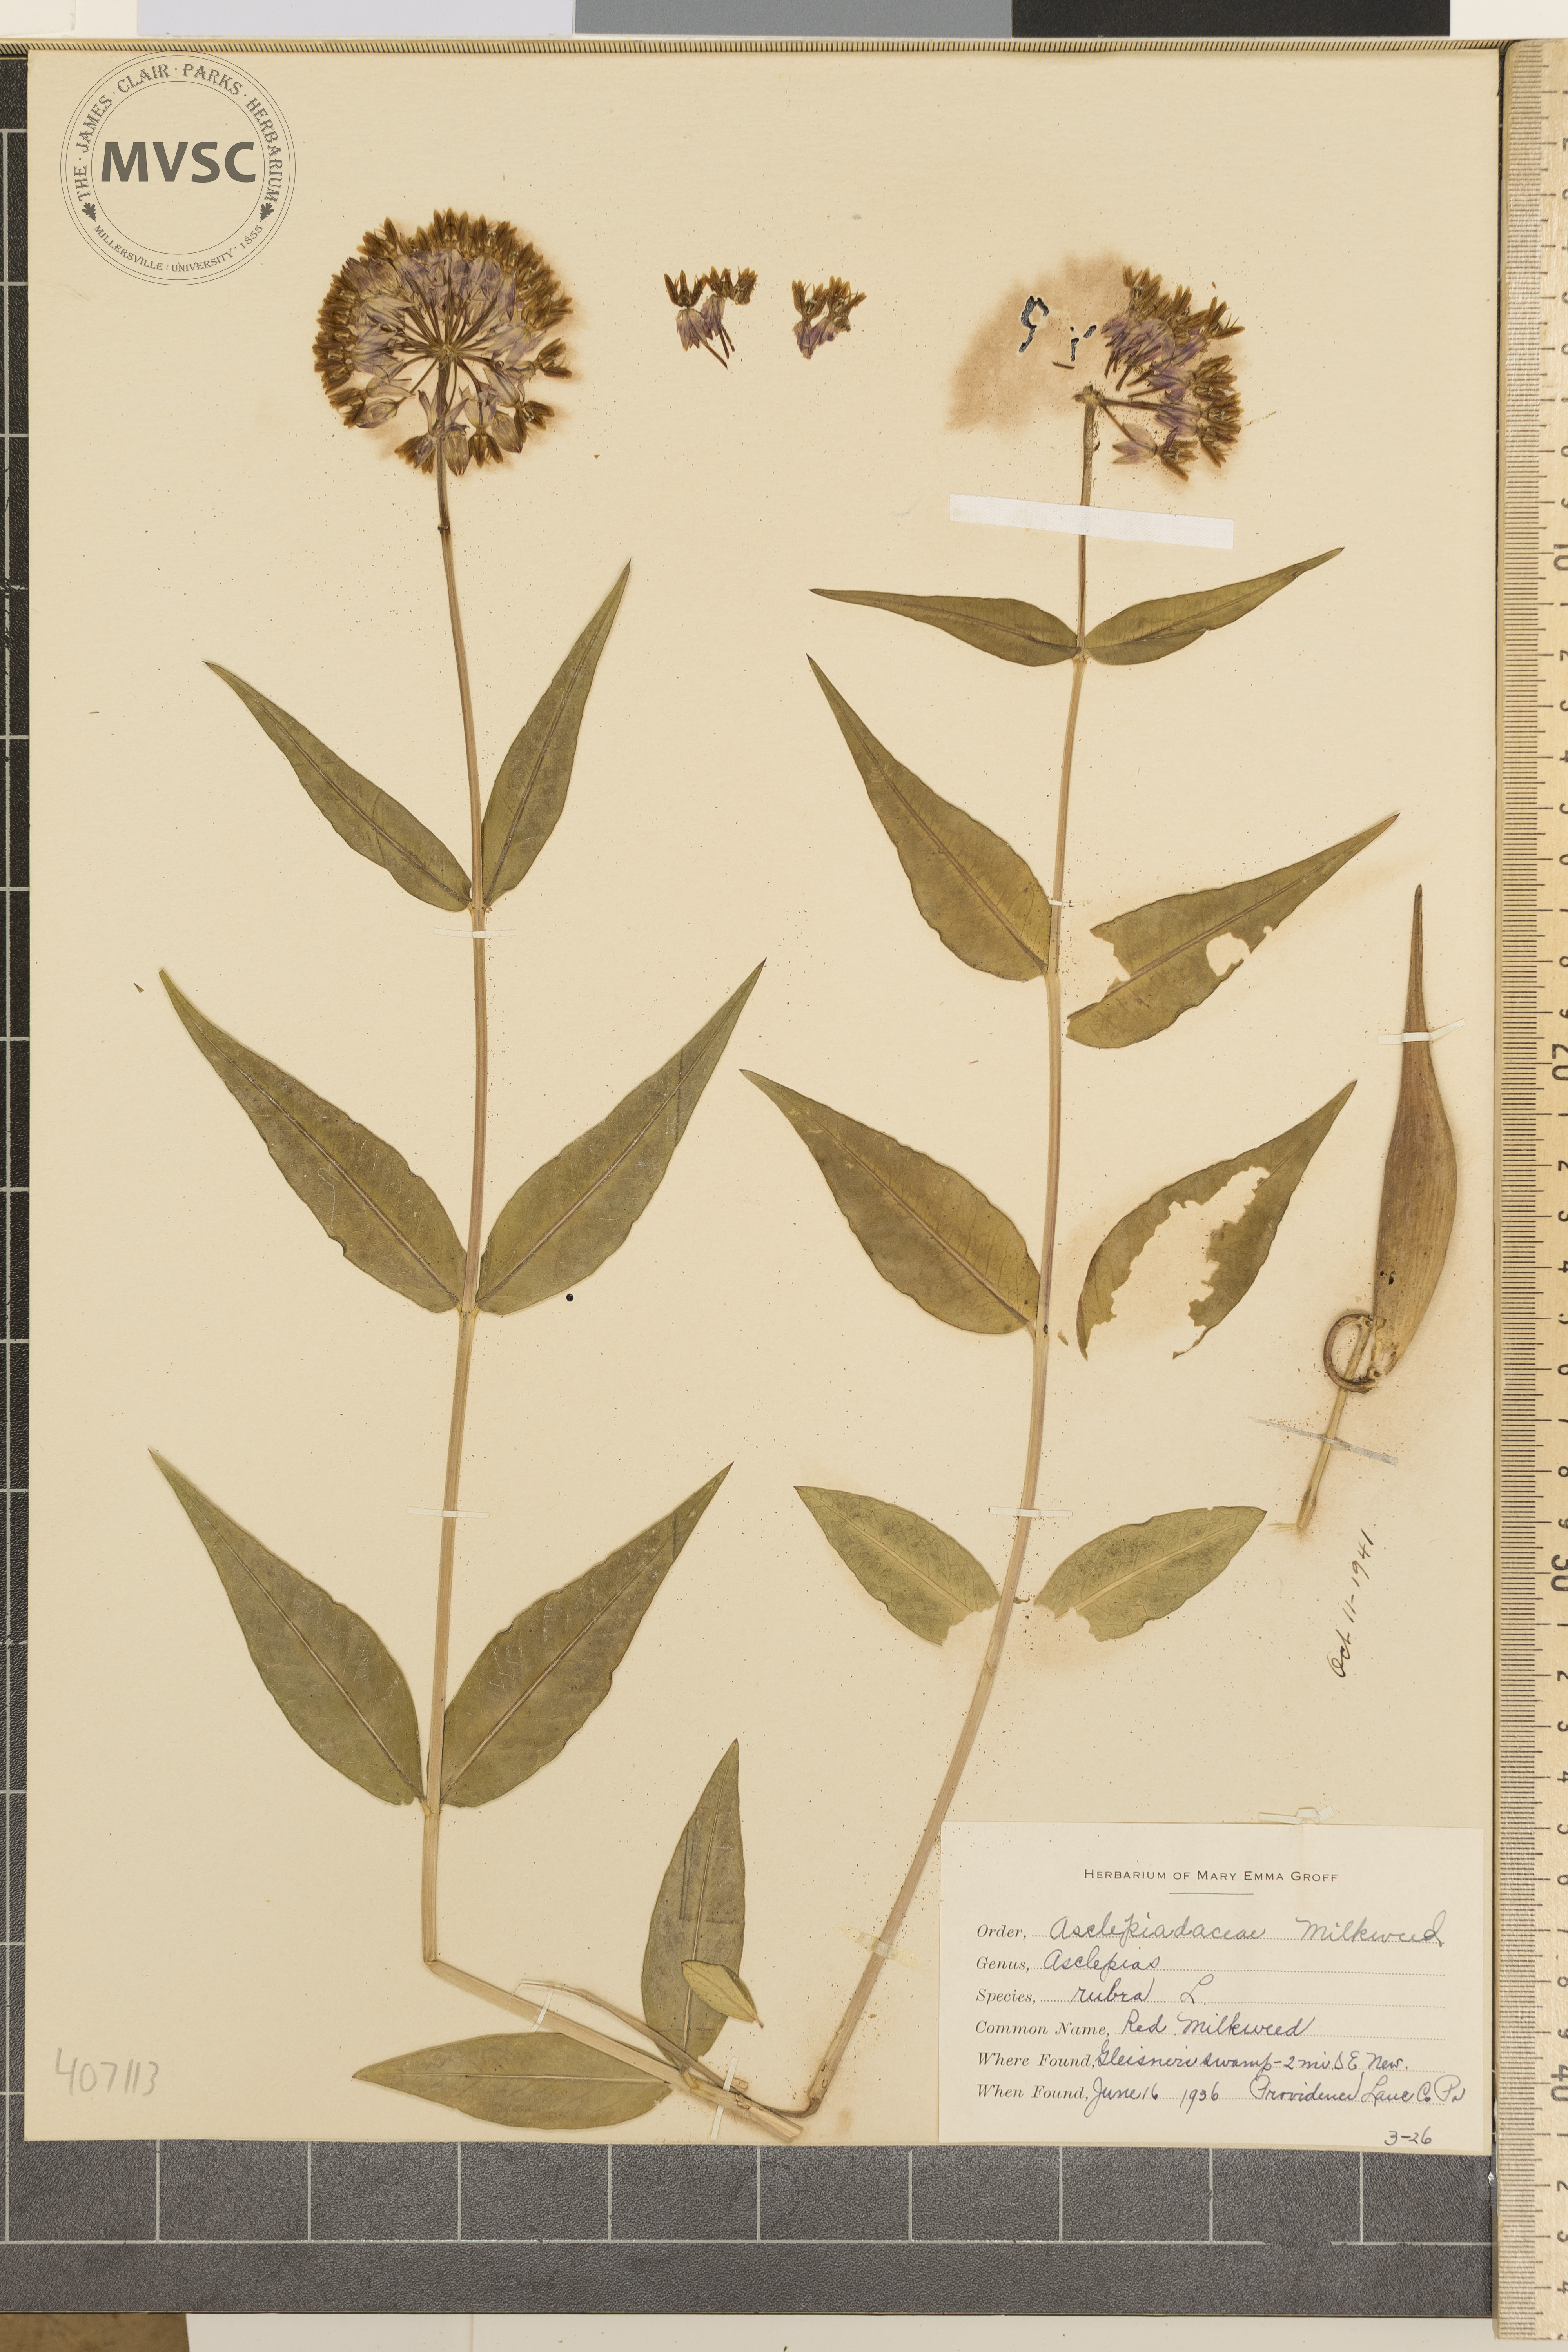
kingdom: Plantae
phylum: Tracheophyta
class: Magnoliopsida
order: Gentianales
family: Apocynaceae
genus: Asclepias
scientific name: Asclepias rubra
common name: red milkweed
